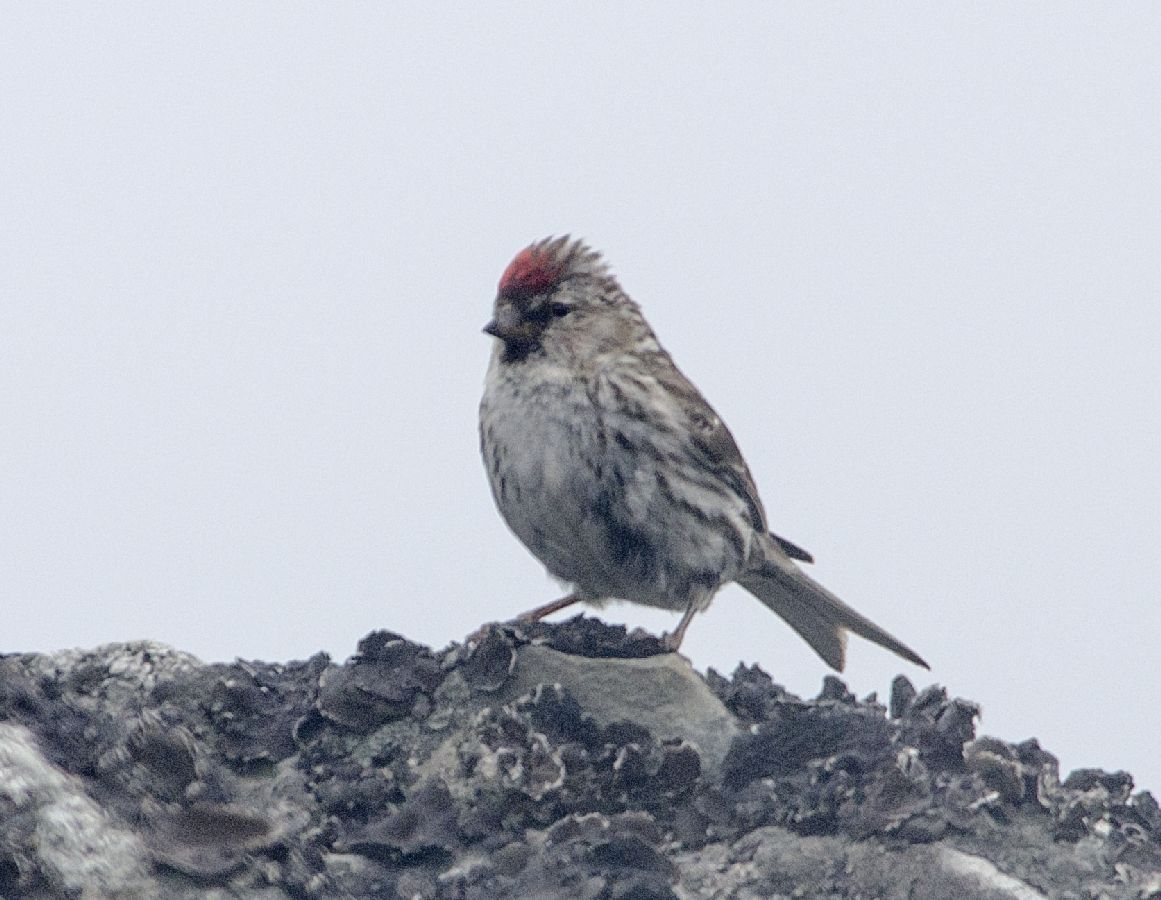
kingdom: Animalia
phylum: Chordata
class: Aves
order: Passeriformes
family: Fringillidae
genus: Acanthis
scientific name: Acanthis hornemanni
